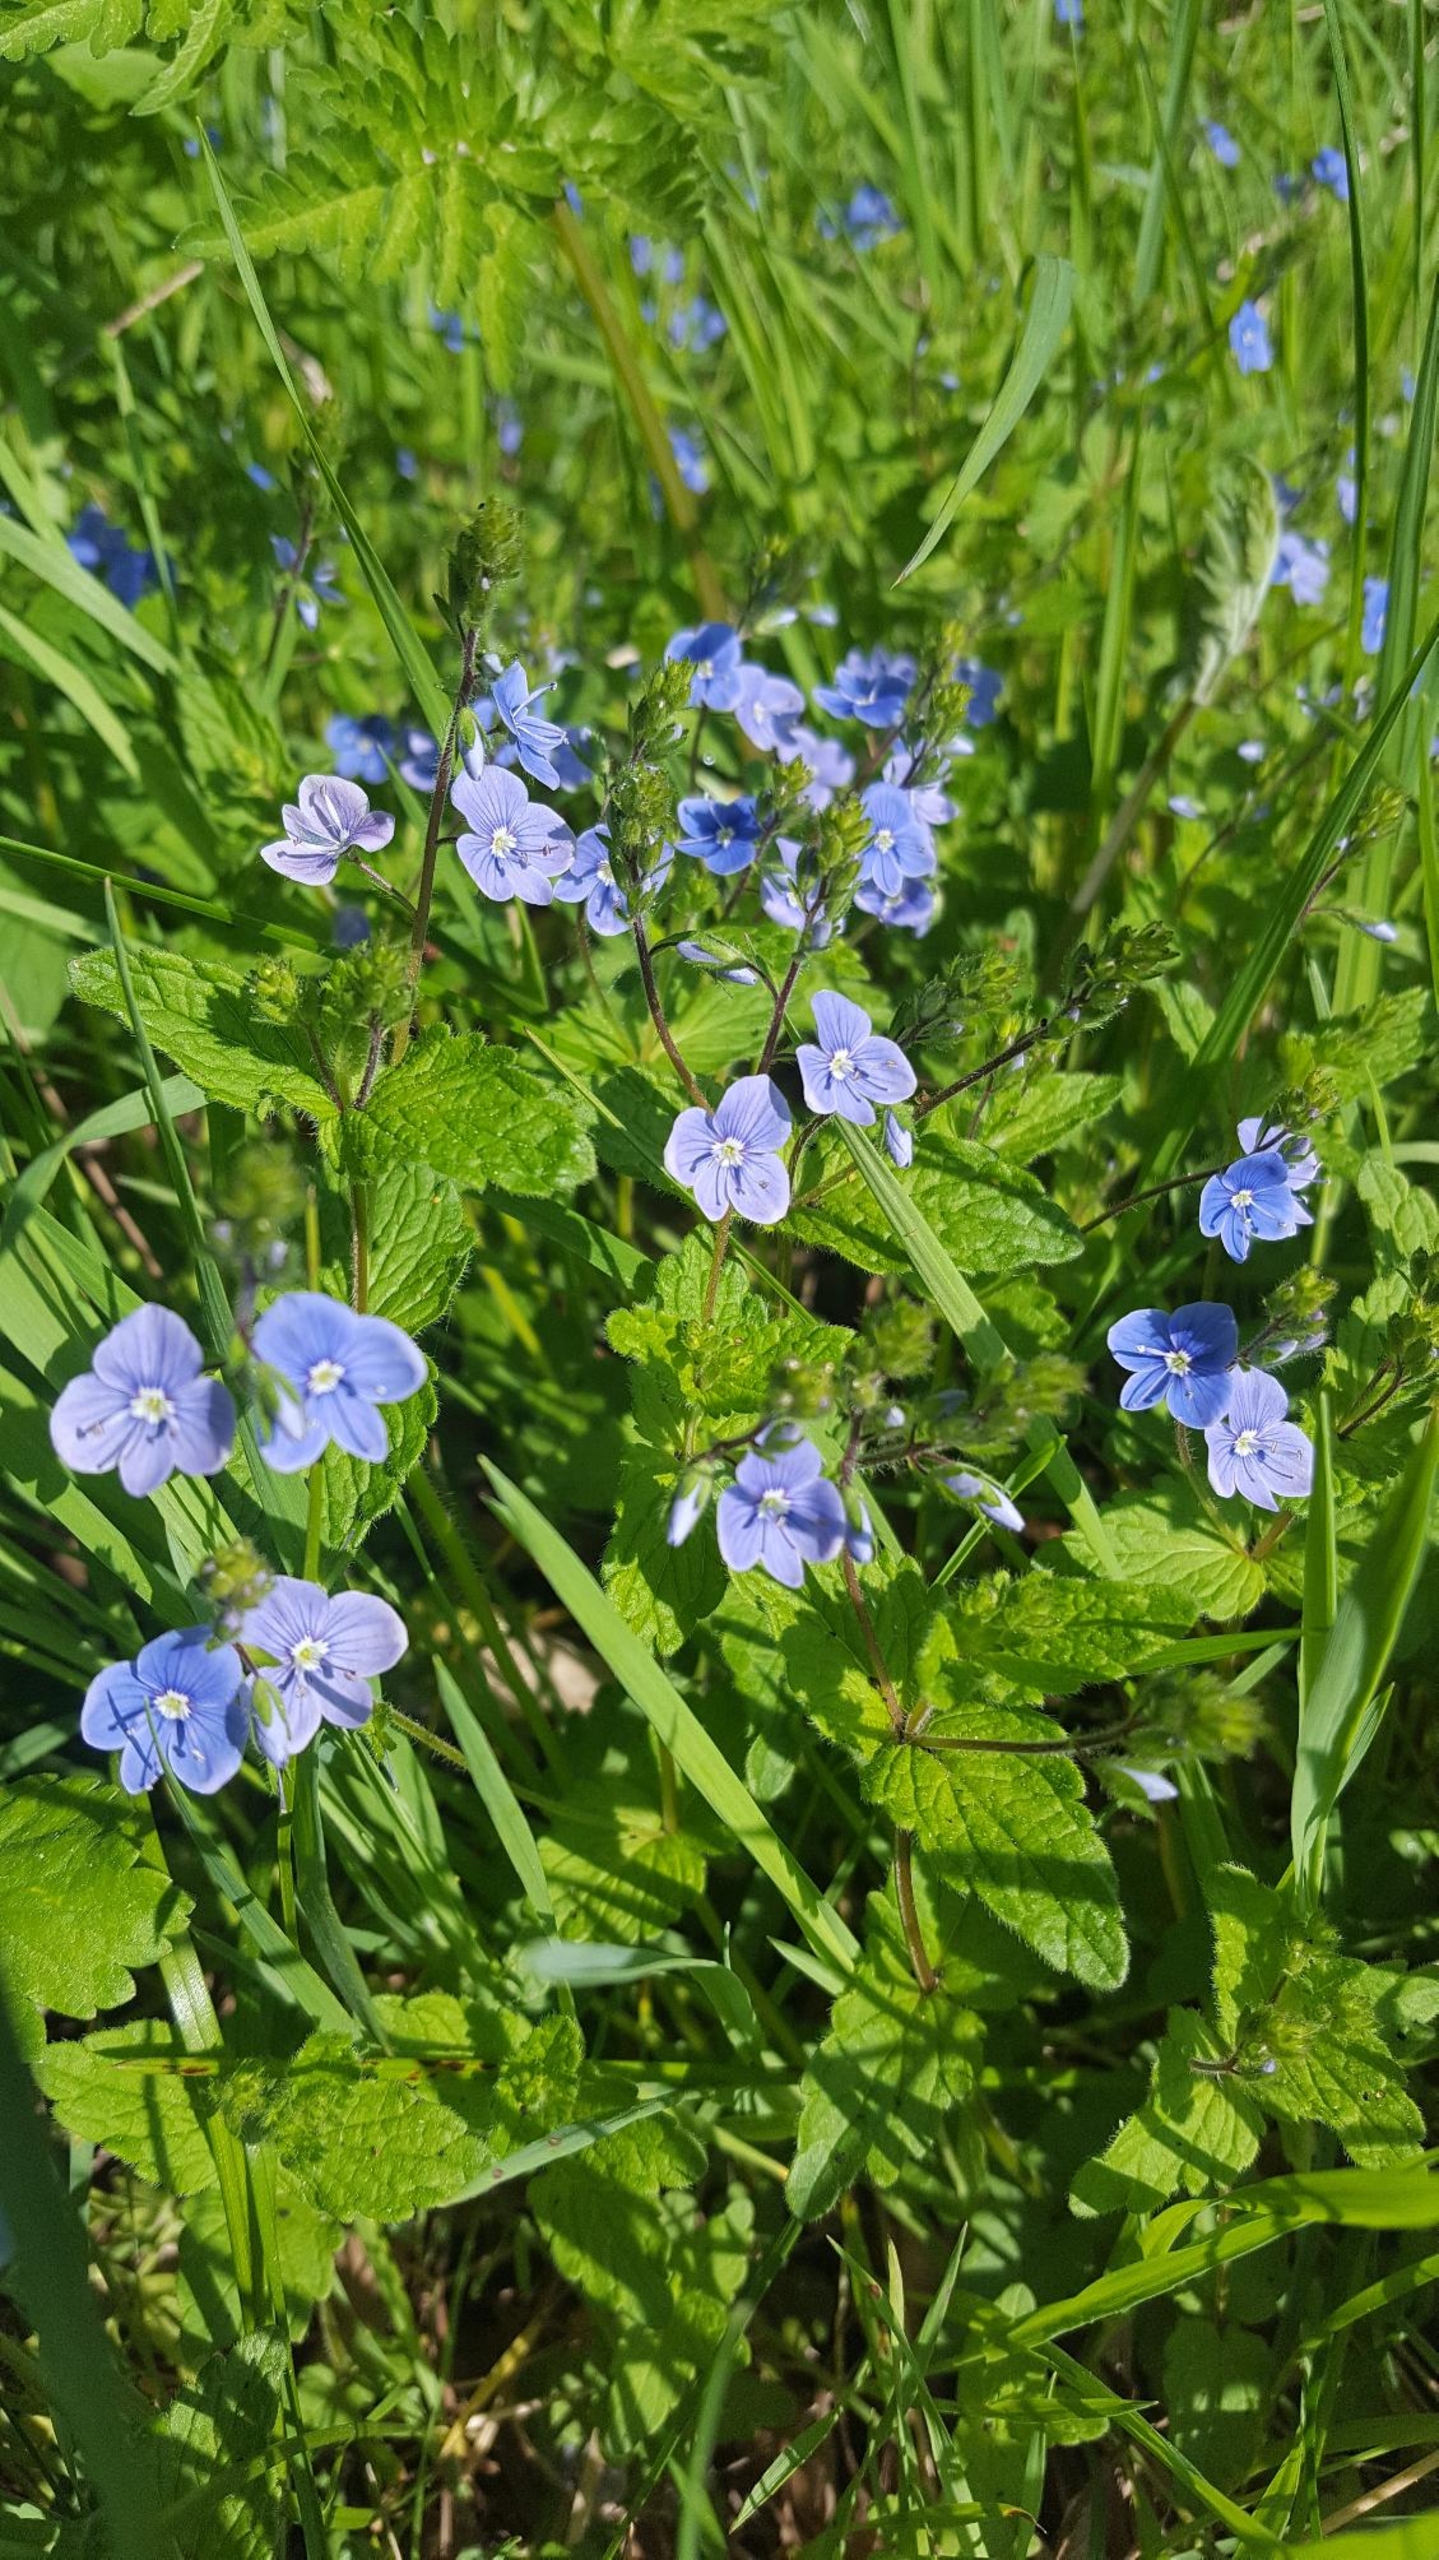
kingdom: Plantae
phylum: Tracheophyta
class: Magnoliopsida
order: Lamiales
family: Plantaginaceae
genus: Veronica
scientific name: Veronica chamaedrys
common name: Tveskægget ærenpris
